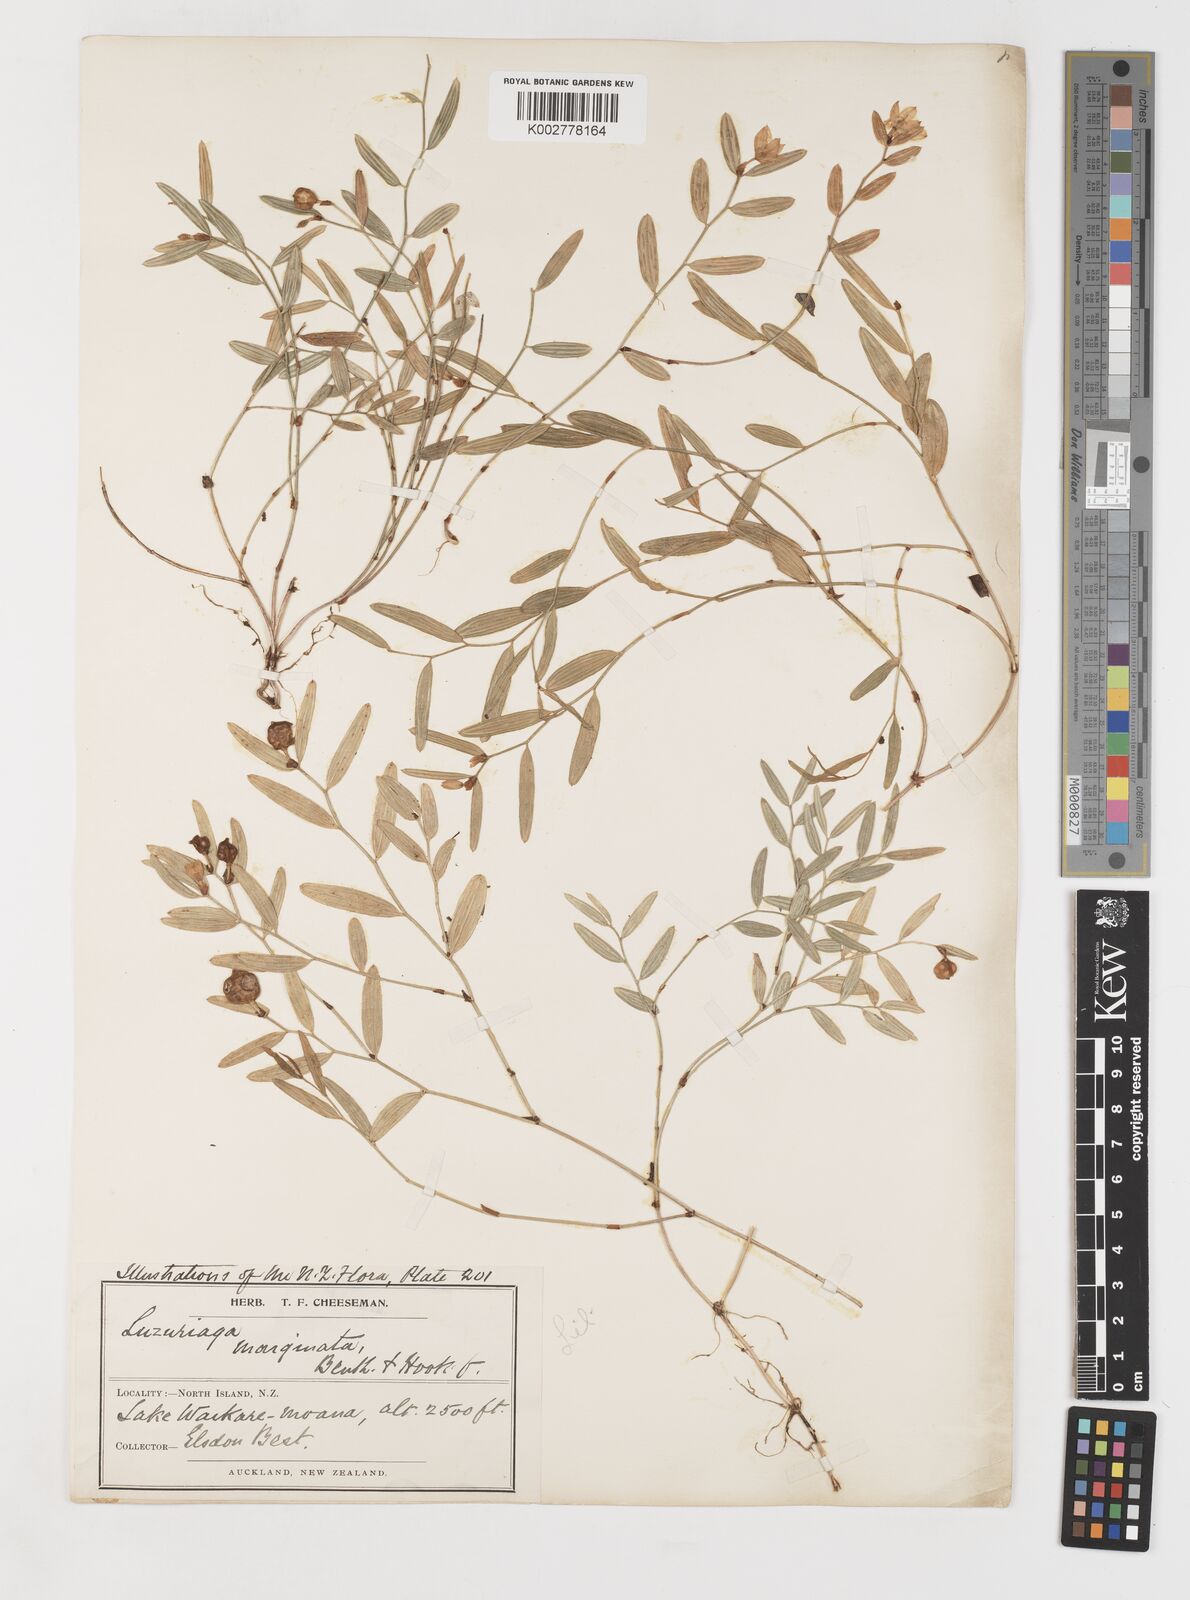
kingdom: Plantae
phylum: Tracheophyta
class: Liliopsida
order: Liliales
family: Alstroemeriaceae
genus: Luzuriaga
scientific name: Luzuriaga parviflora
